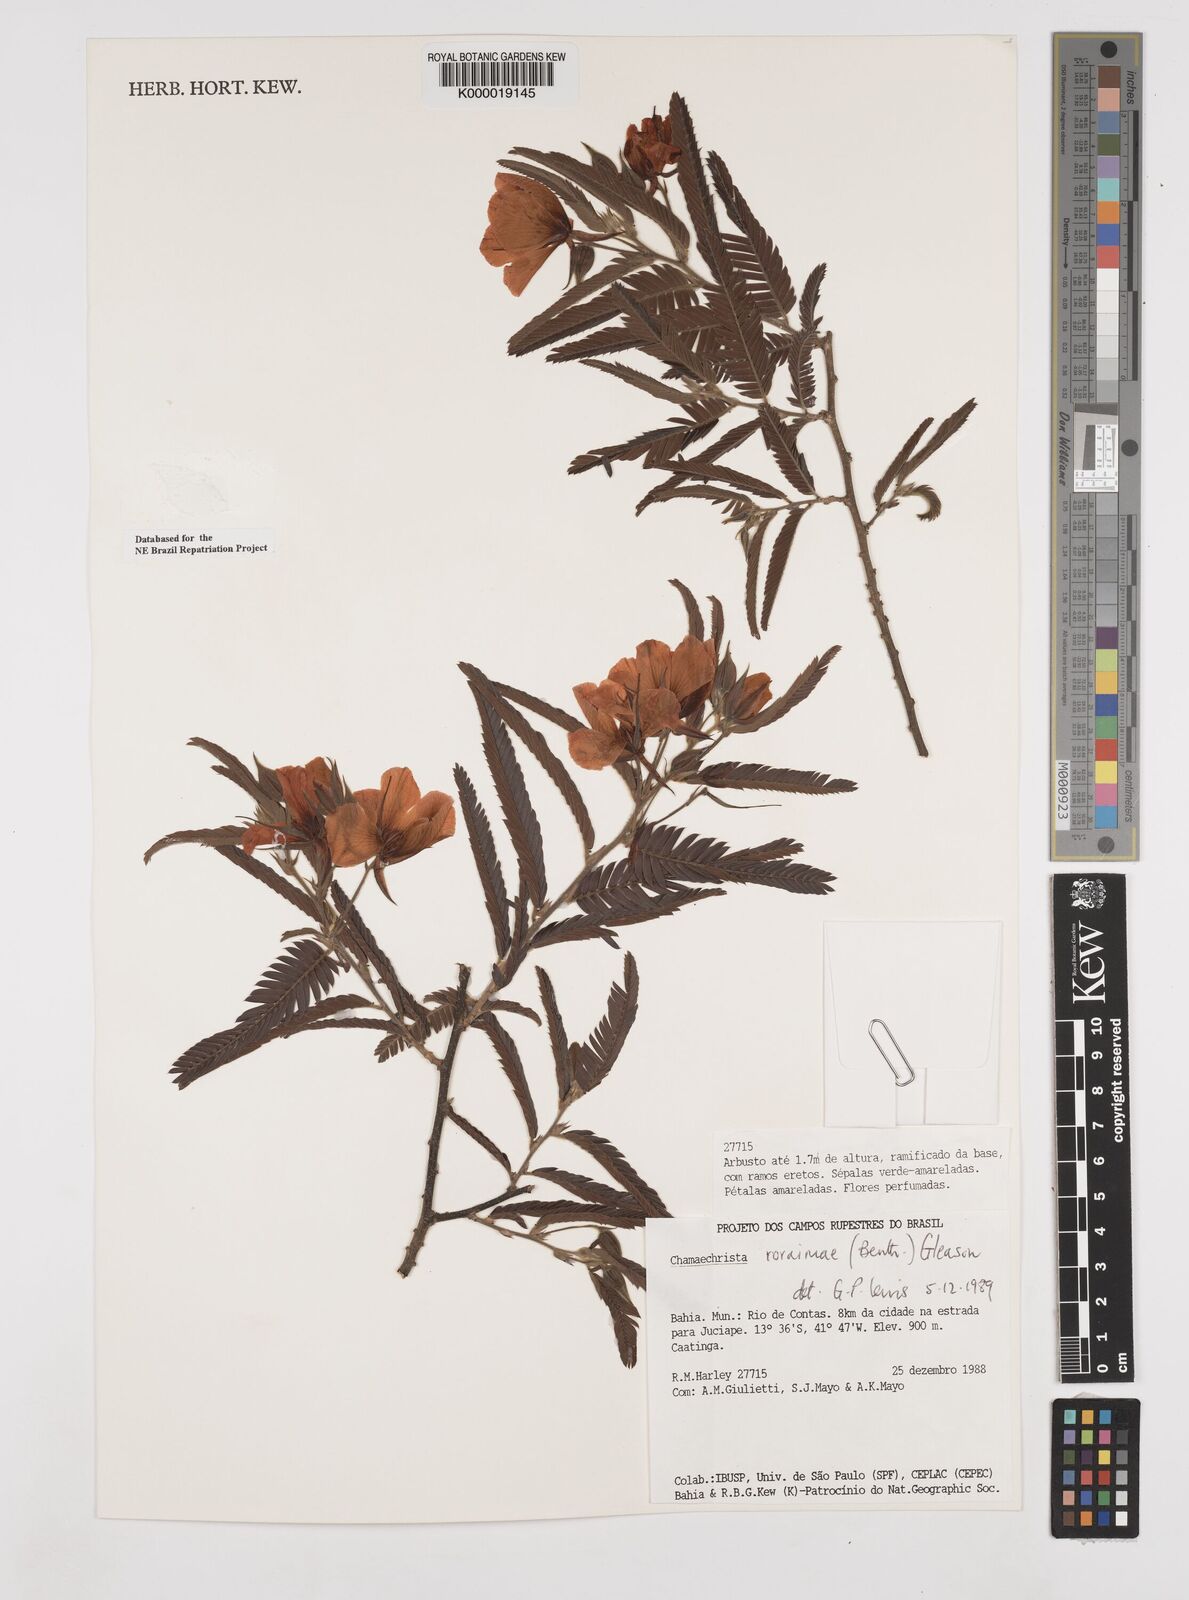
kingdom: Plantae
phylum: Tracheophyta
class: Magnoliopsida
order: Fabales
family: Fabaceae
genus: Chamaecrista
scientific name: Chamaecrista roraimae
